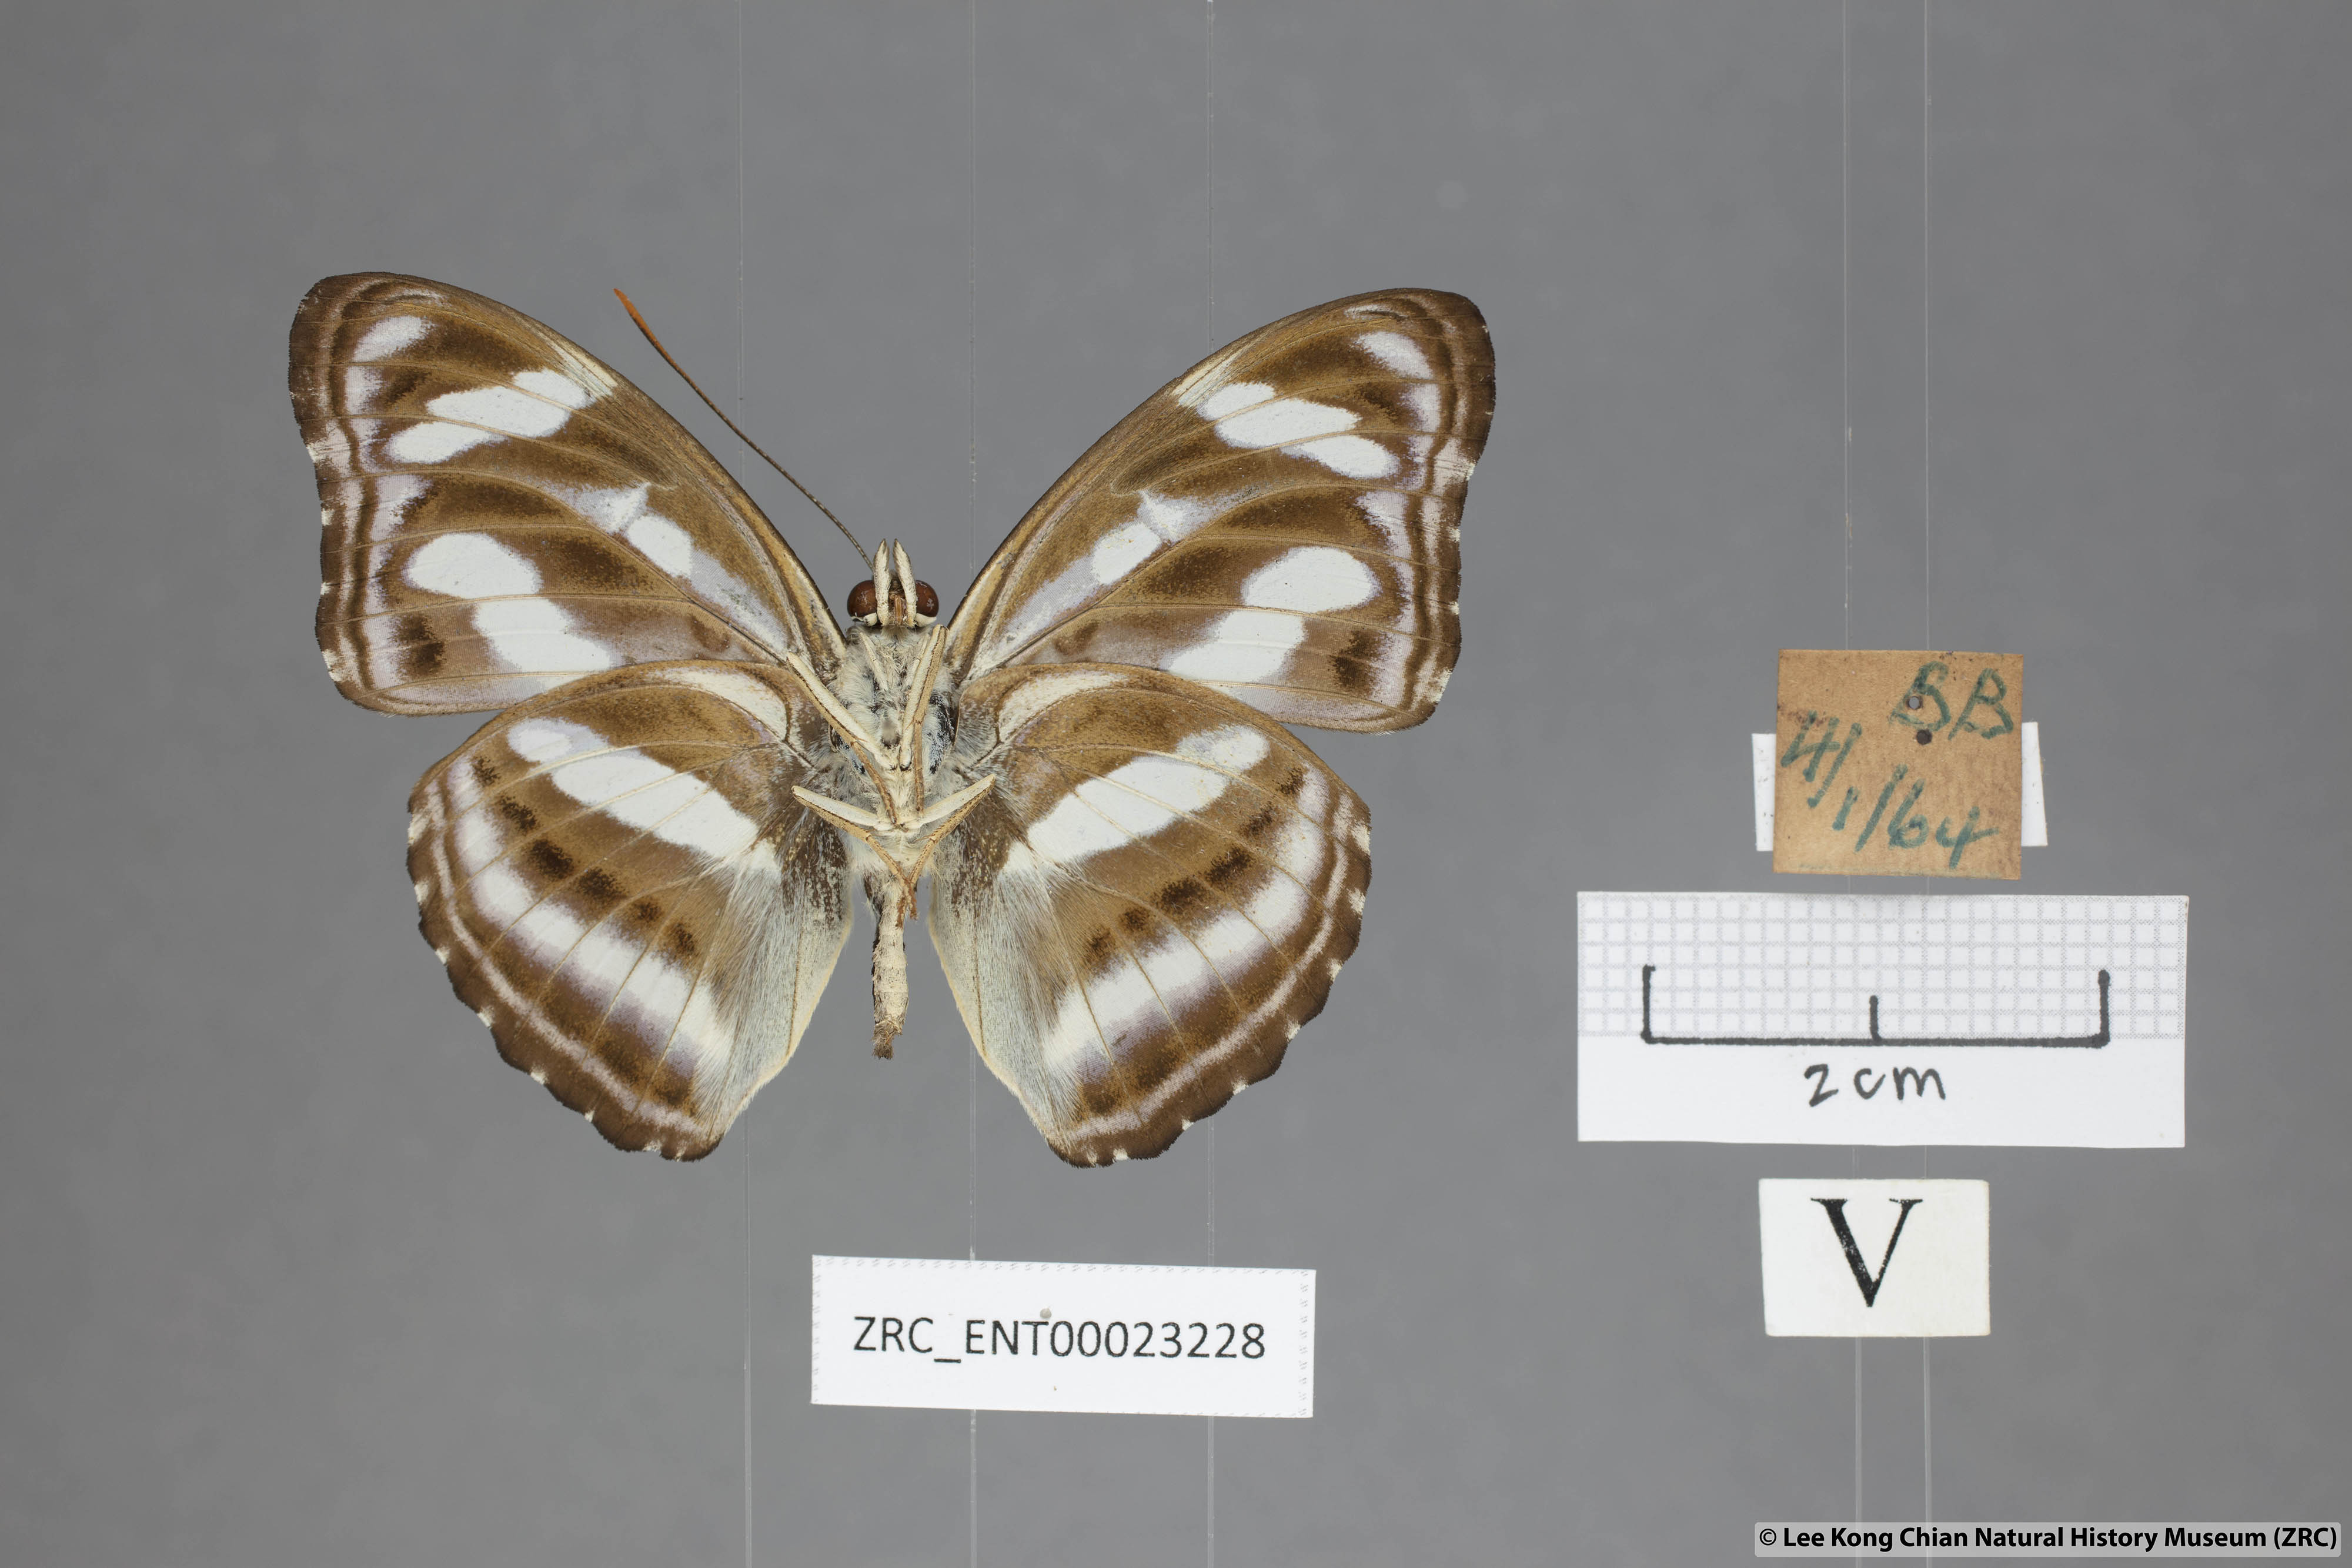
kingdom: Animalia
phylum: Arthropoda
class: Insecta
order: Lepidoptera
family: Nymphalidae
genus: Parathyma
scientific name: Parathyma nefte
